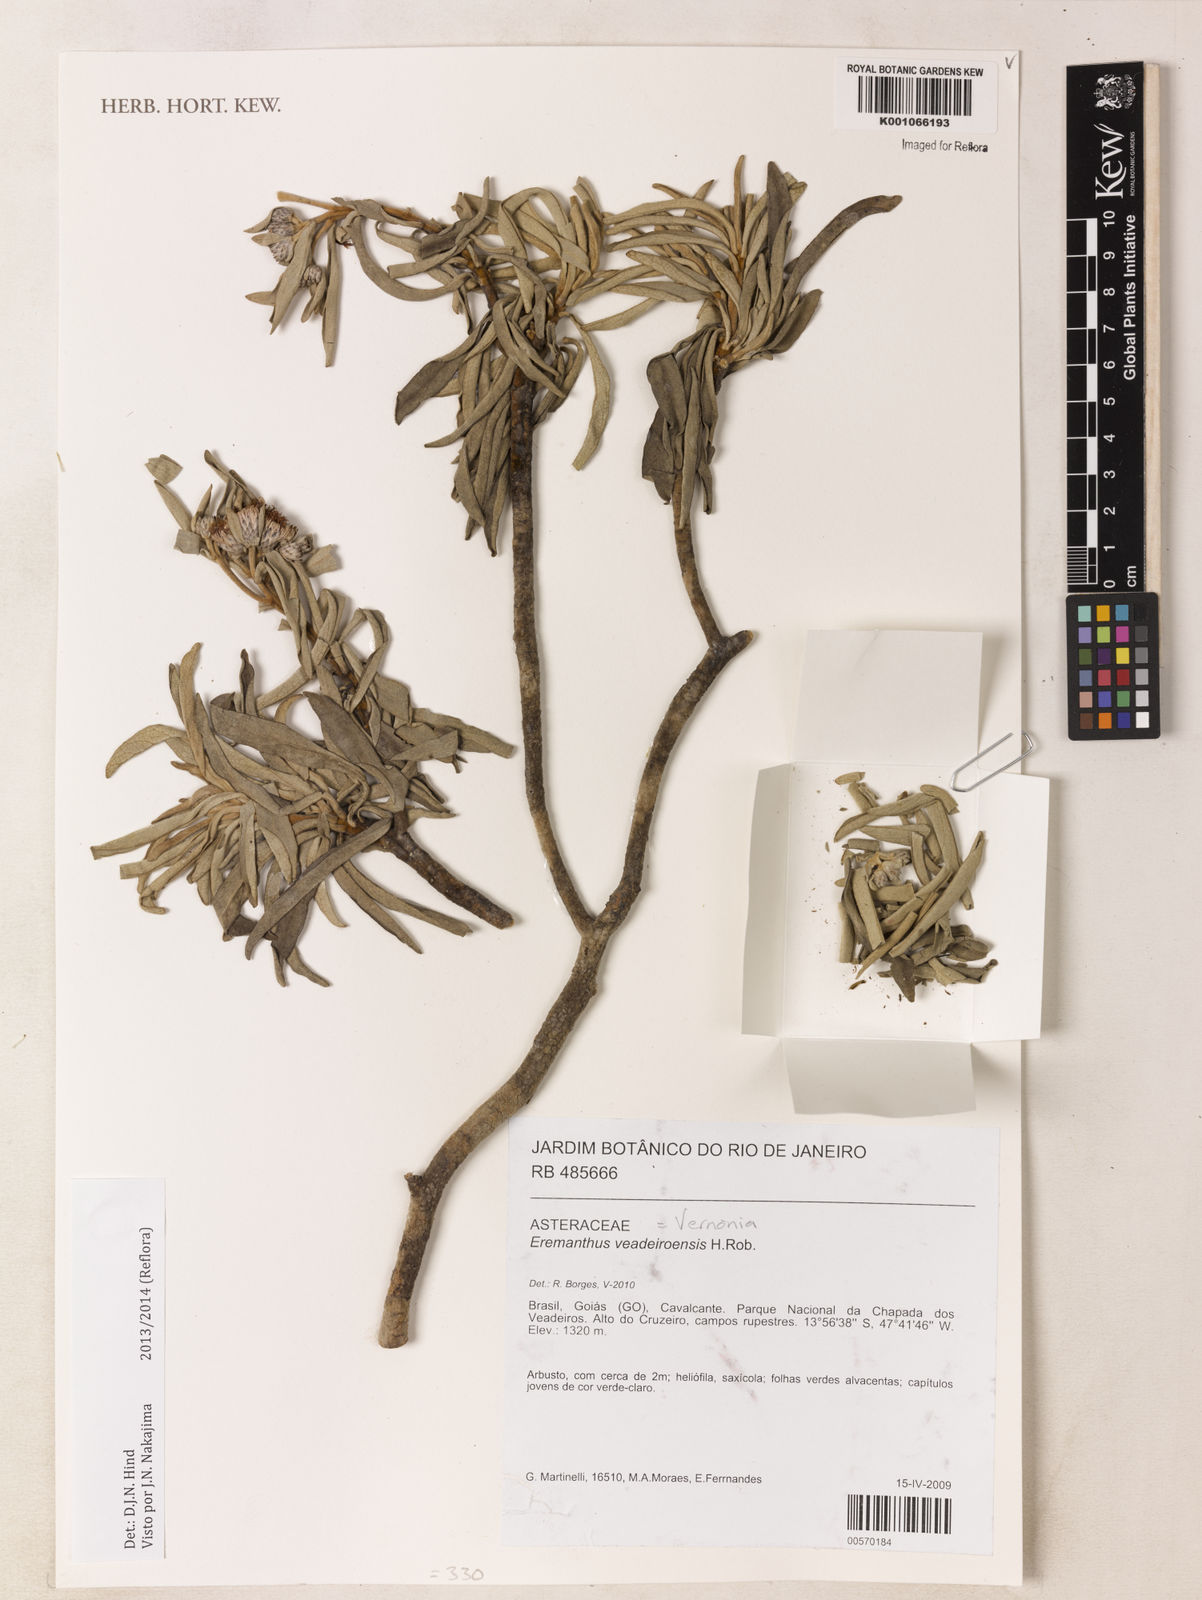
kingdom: Plantae
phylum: Tracheophyta
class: Magnoliopsida
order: Asterales
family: Asteraceae
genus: Eremanthus
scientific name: Eremanthus veadeiroensis
